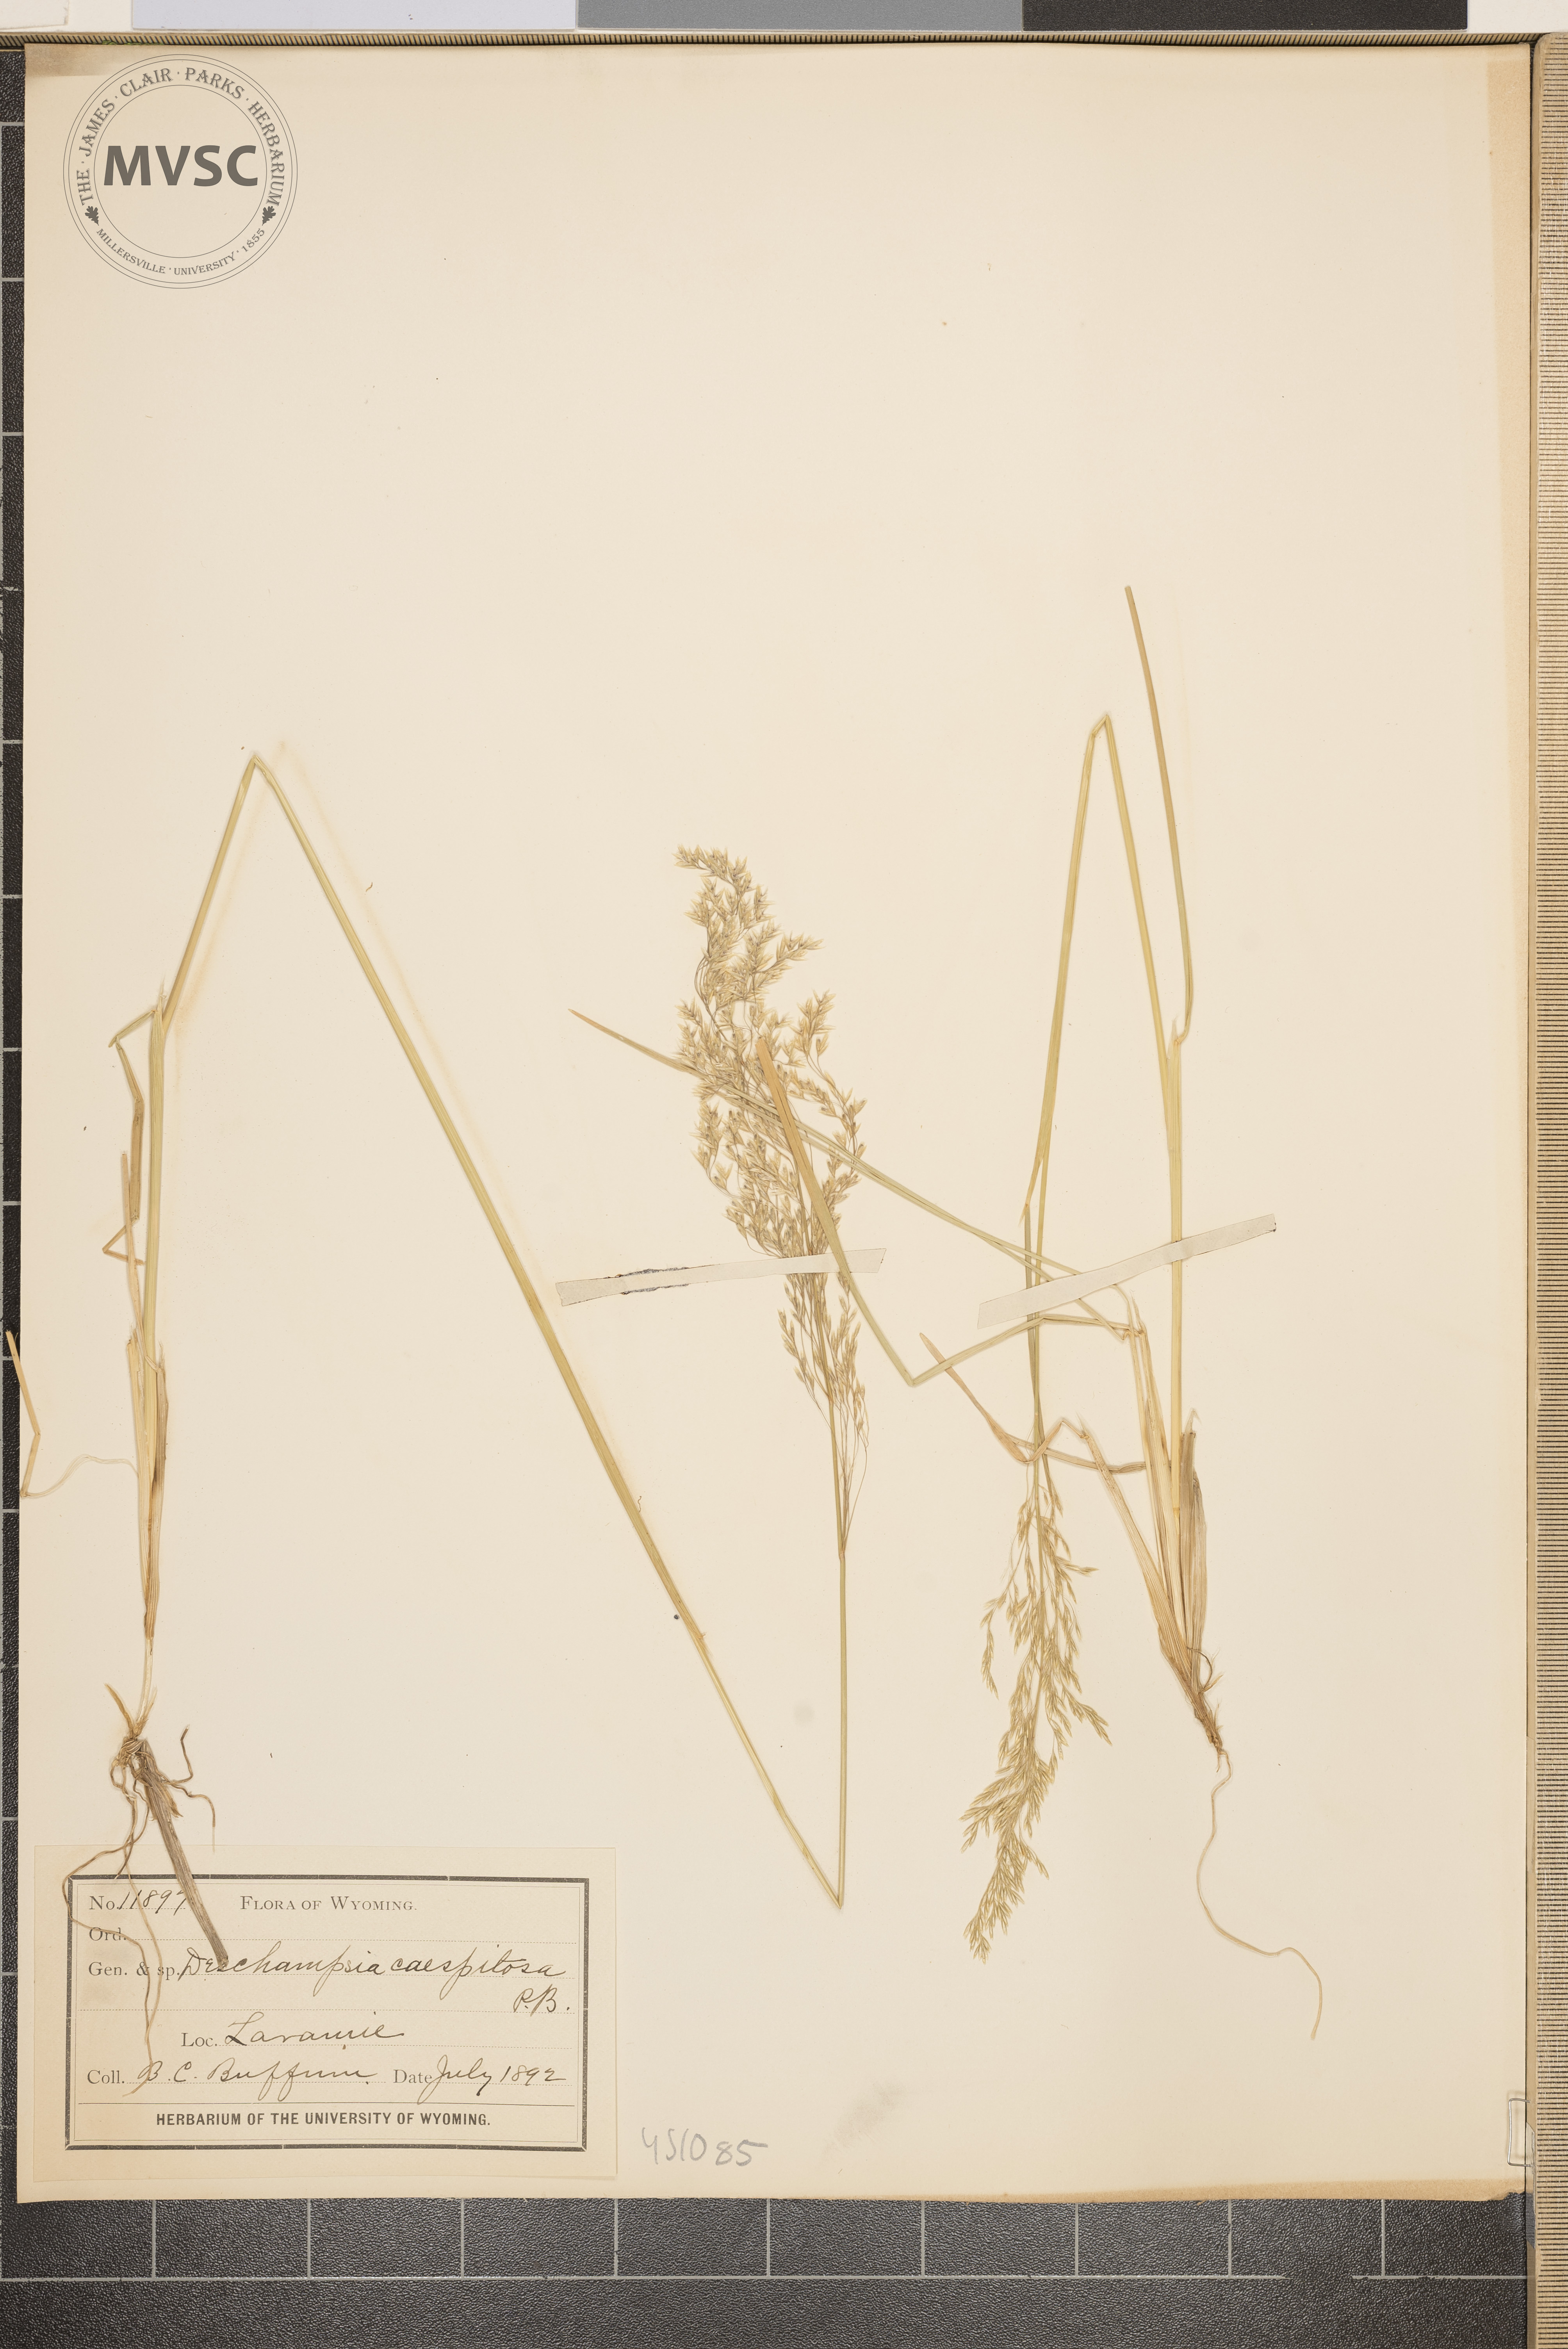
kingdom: Plantae
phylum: Tracheophyta
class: Liliopsida
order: Poales
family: Poaceae
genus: Deschampsia
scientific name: Deschampsia cespitosa
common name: Tufted hair-grass
